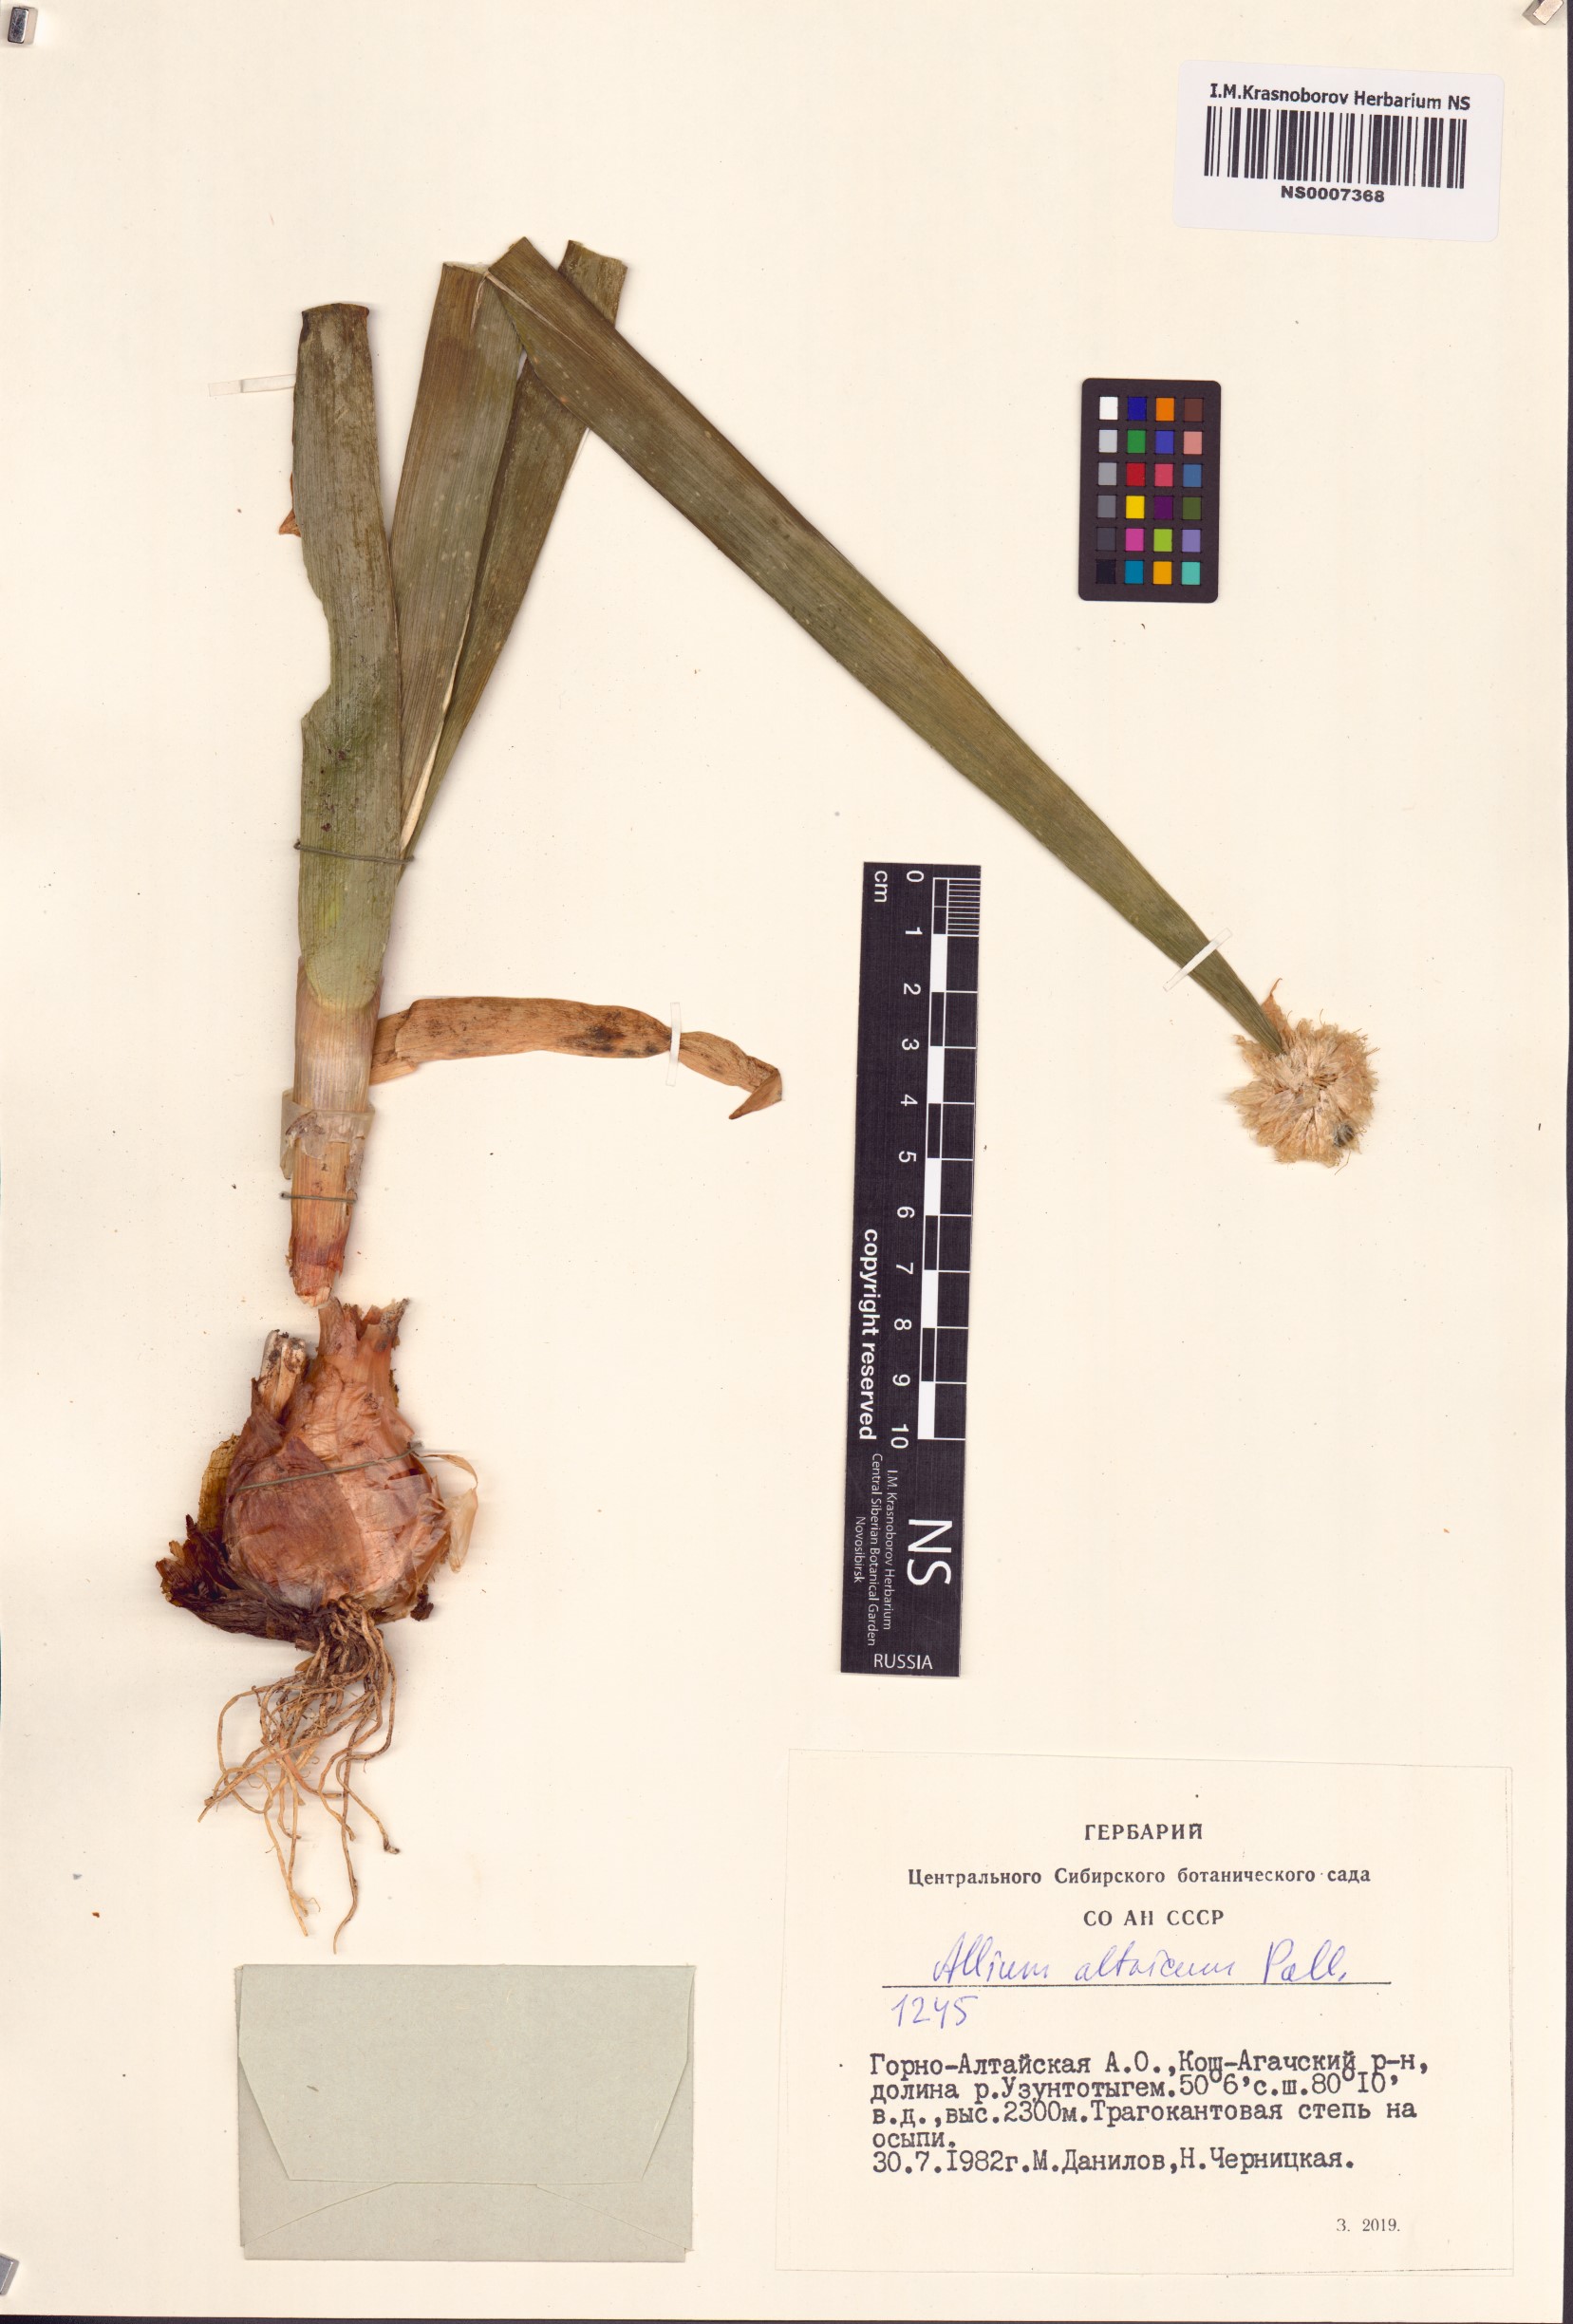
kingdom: Plantae
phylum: Tracheophyta
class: Liliopsida
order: Asparagales
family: Amaryllidaceae
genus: Allium
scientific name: Allium altaicum
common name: Altai onion
